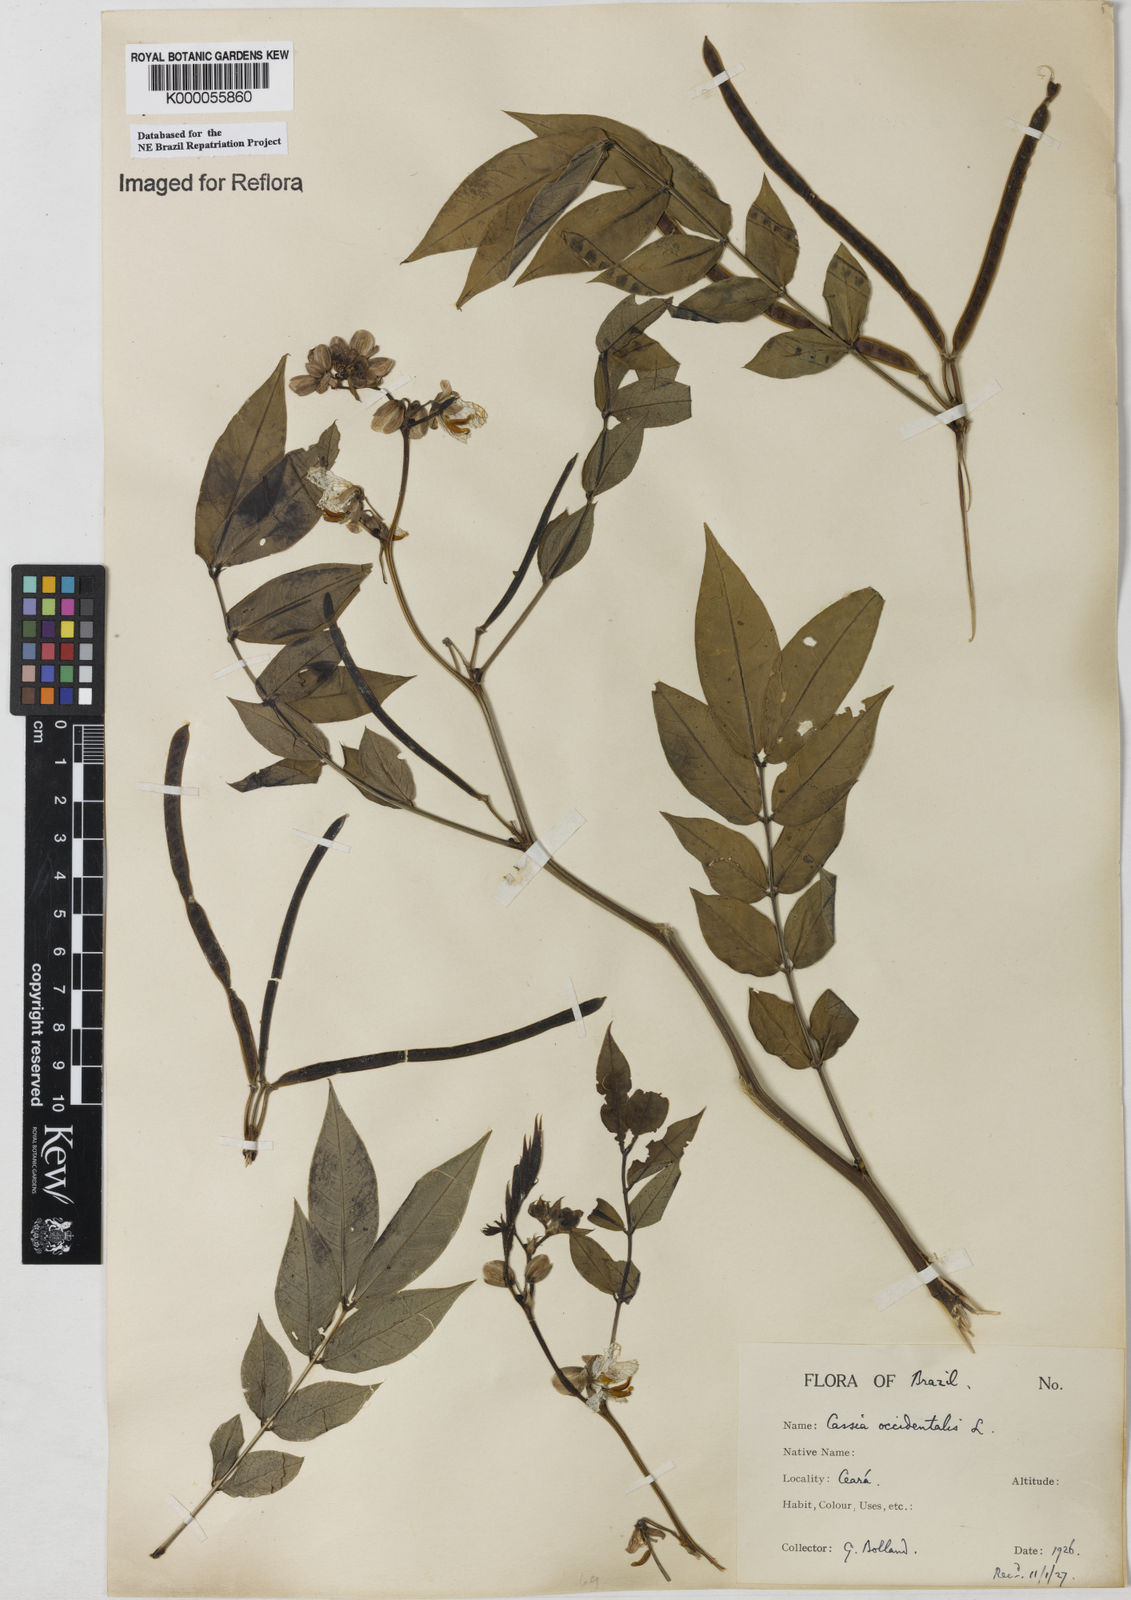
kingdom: Plantae
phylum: Tracheophyta
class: Magnoliopsida
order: Fabales
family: Fabaceae
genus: Senna
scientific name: Senna occidentalis
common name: Septicweed
